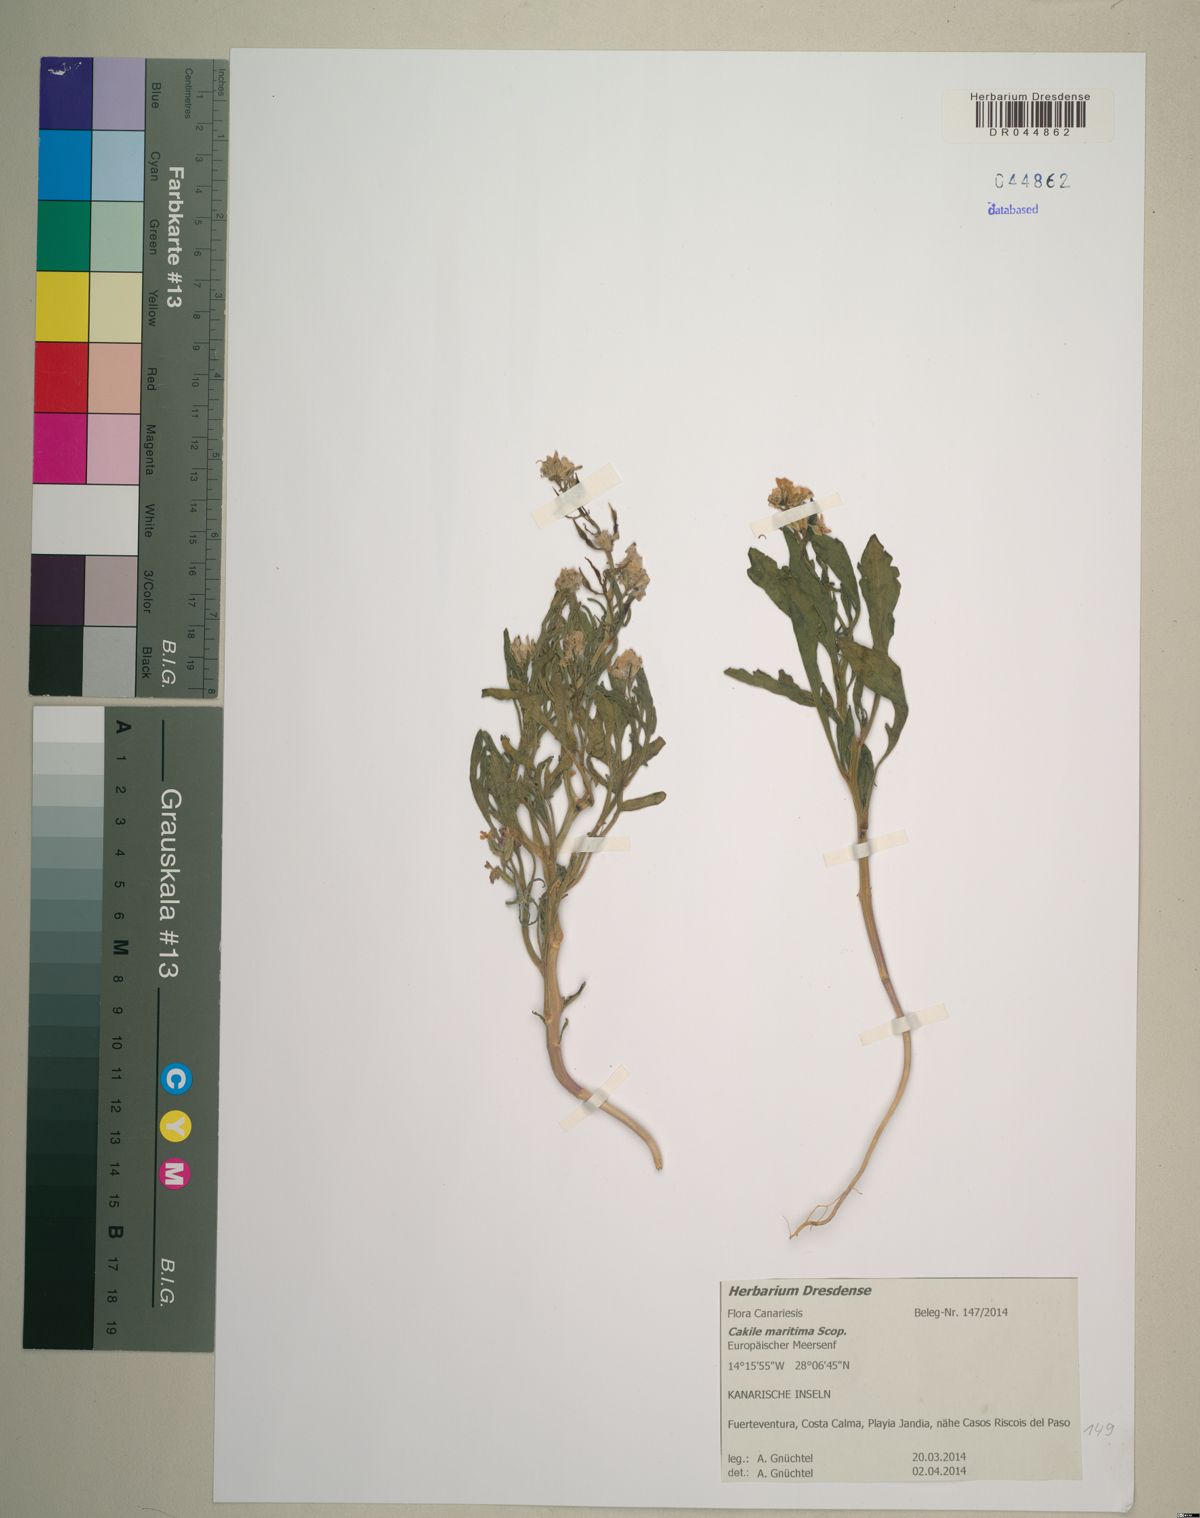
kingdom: Plantae
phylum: Tracheophyta
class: Magnoliopsida
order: Brassicales
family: Brassicaceae
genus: Cakile
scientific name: Cakile maritima
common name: Sea rocket
